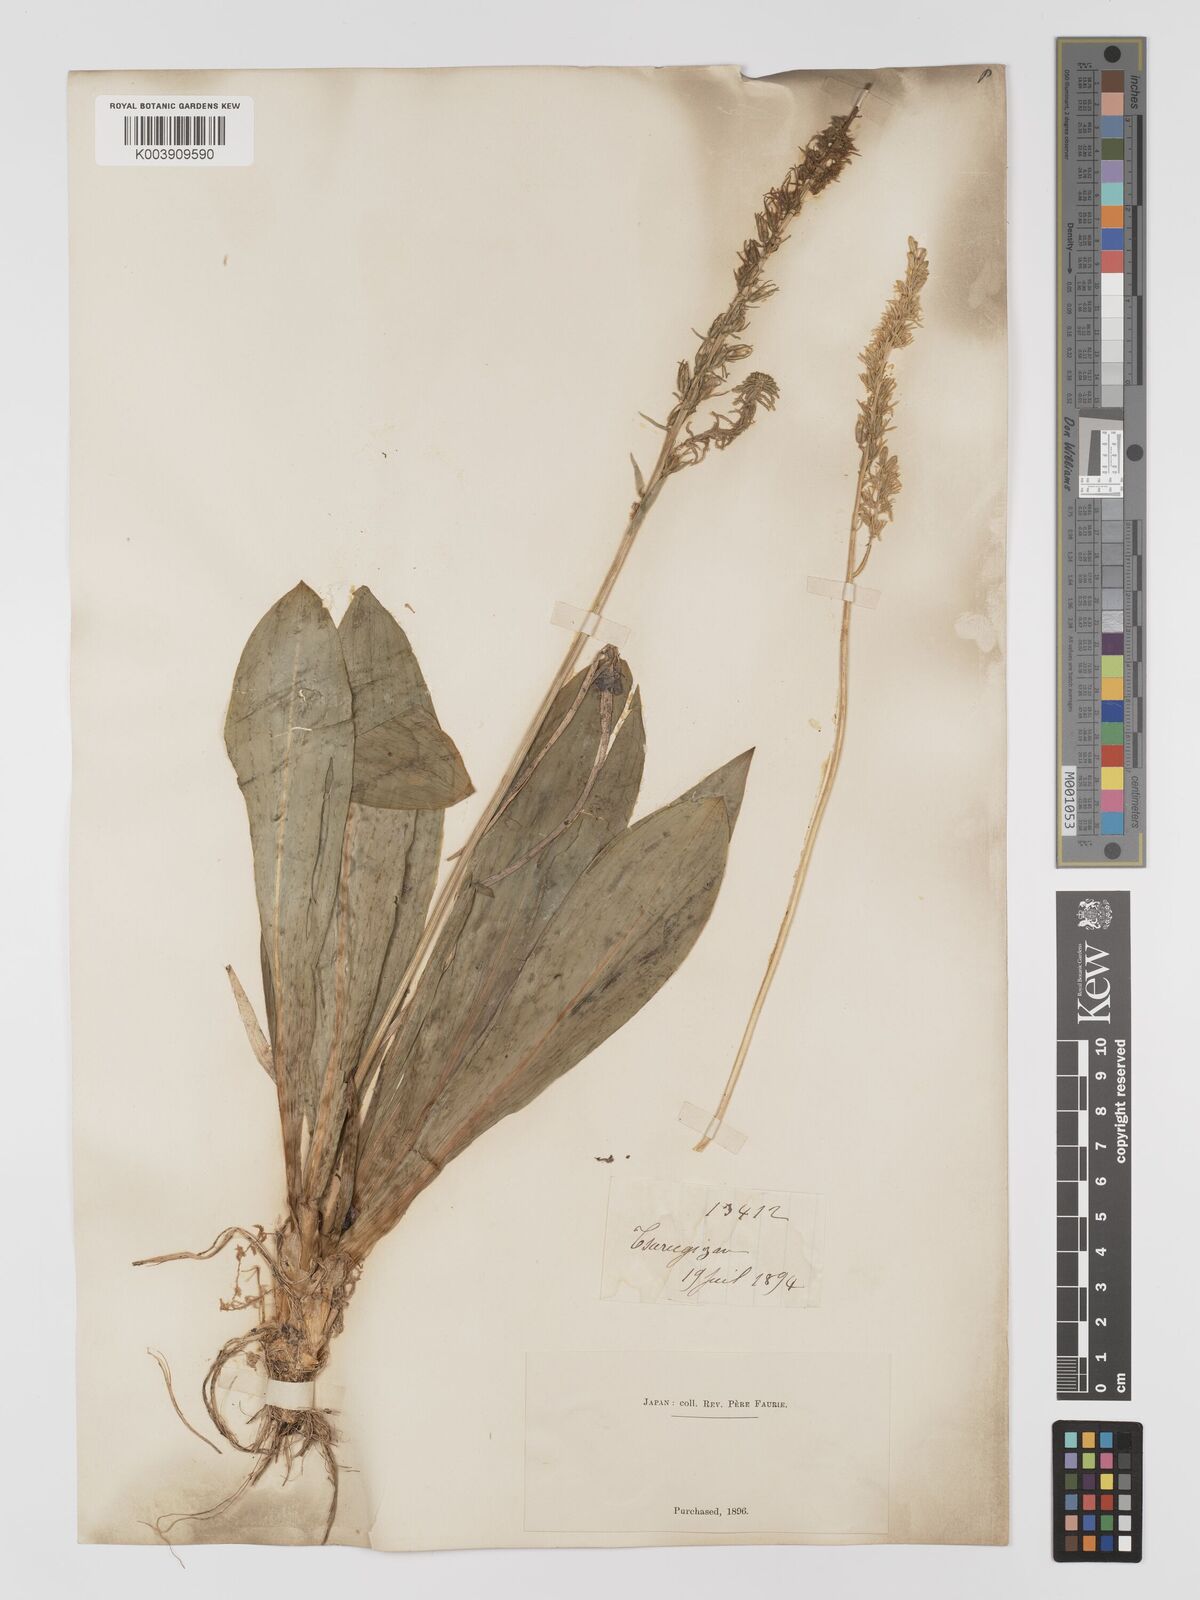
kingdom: Plantae
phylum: Tracheophyta
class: Liliopsida
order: Dioscoreales
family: Nartheciaceae
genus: Metanarthecium
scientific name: Metanarthecium luteoviride
